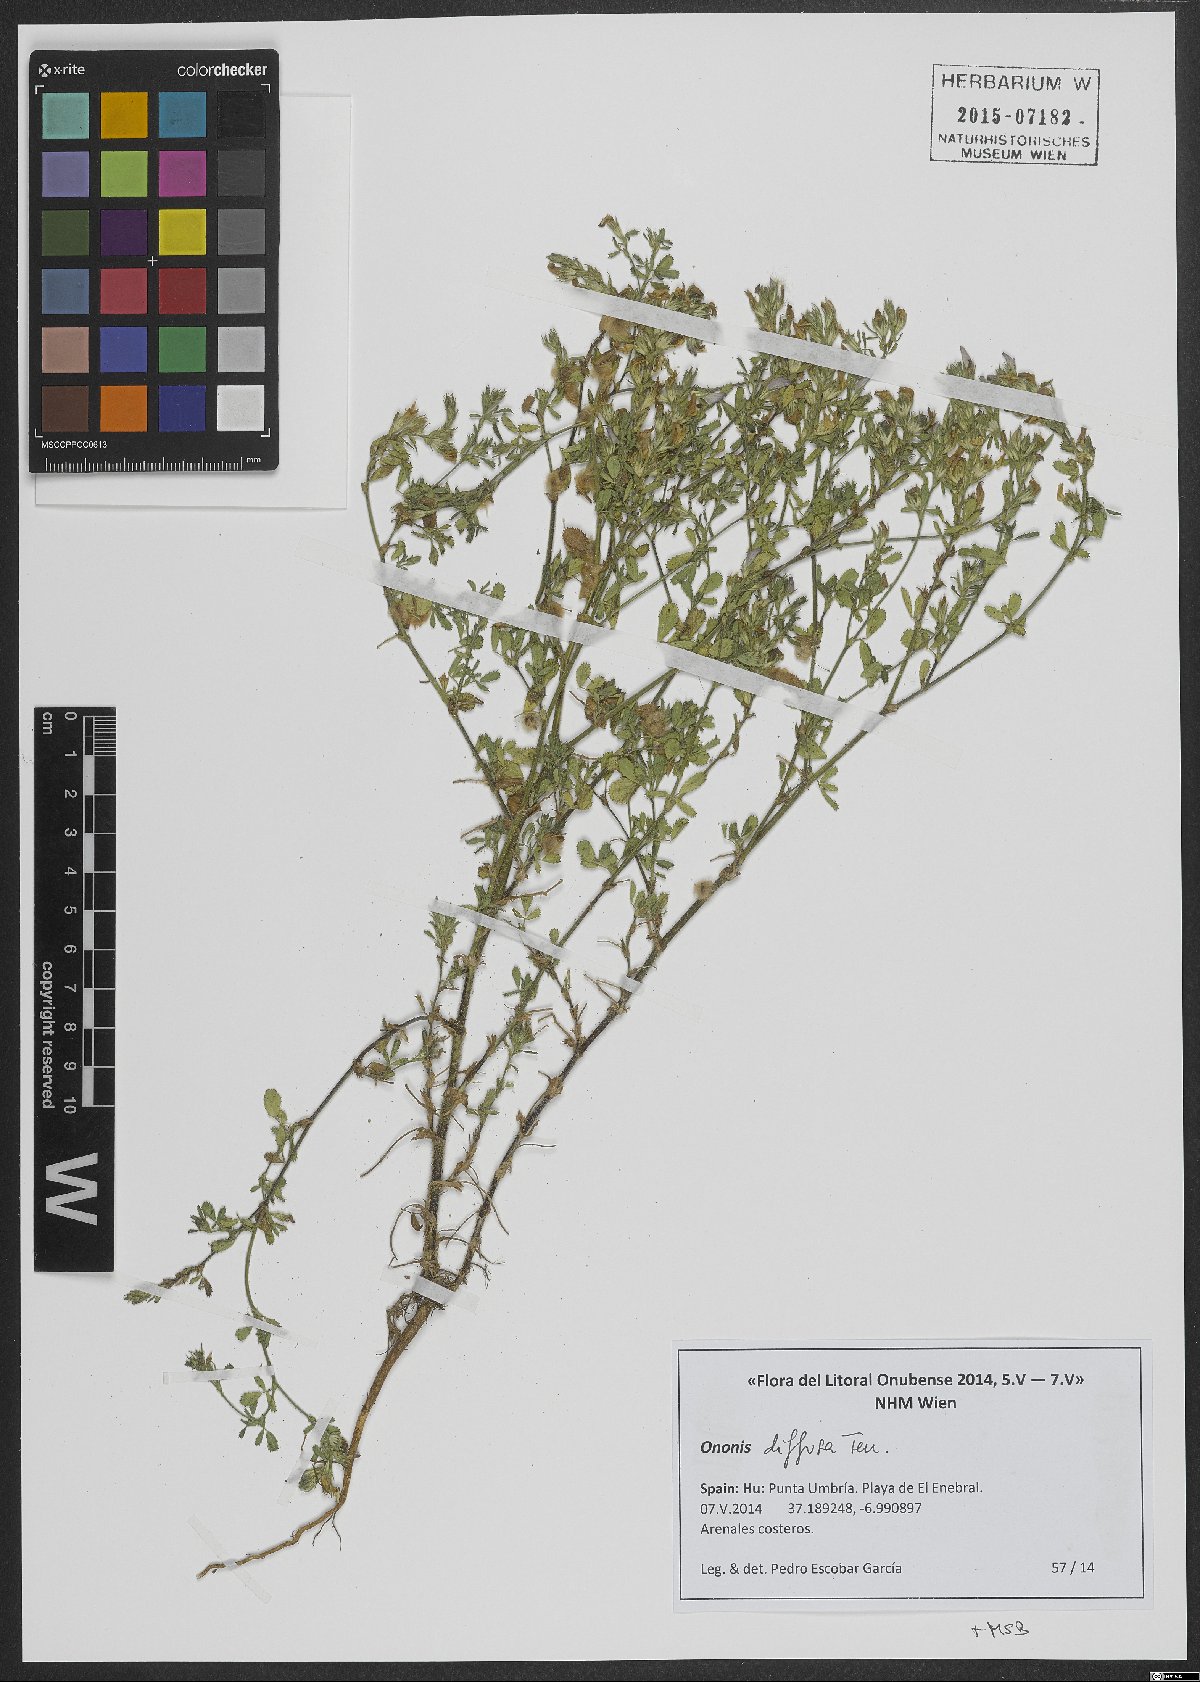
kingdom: Plantae
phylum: Tracheophyta
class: Magnoliopsida
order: Fabales
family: Fabaceae
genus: Ononis
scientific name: Ononis diffusa
